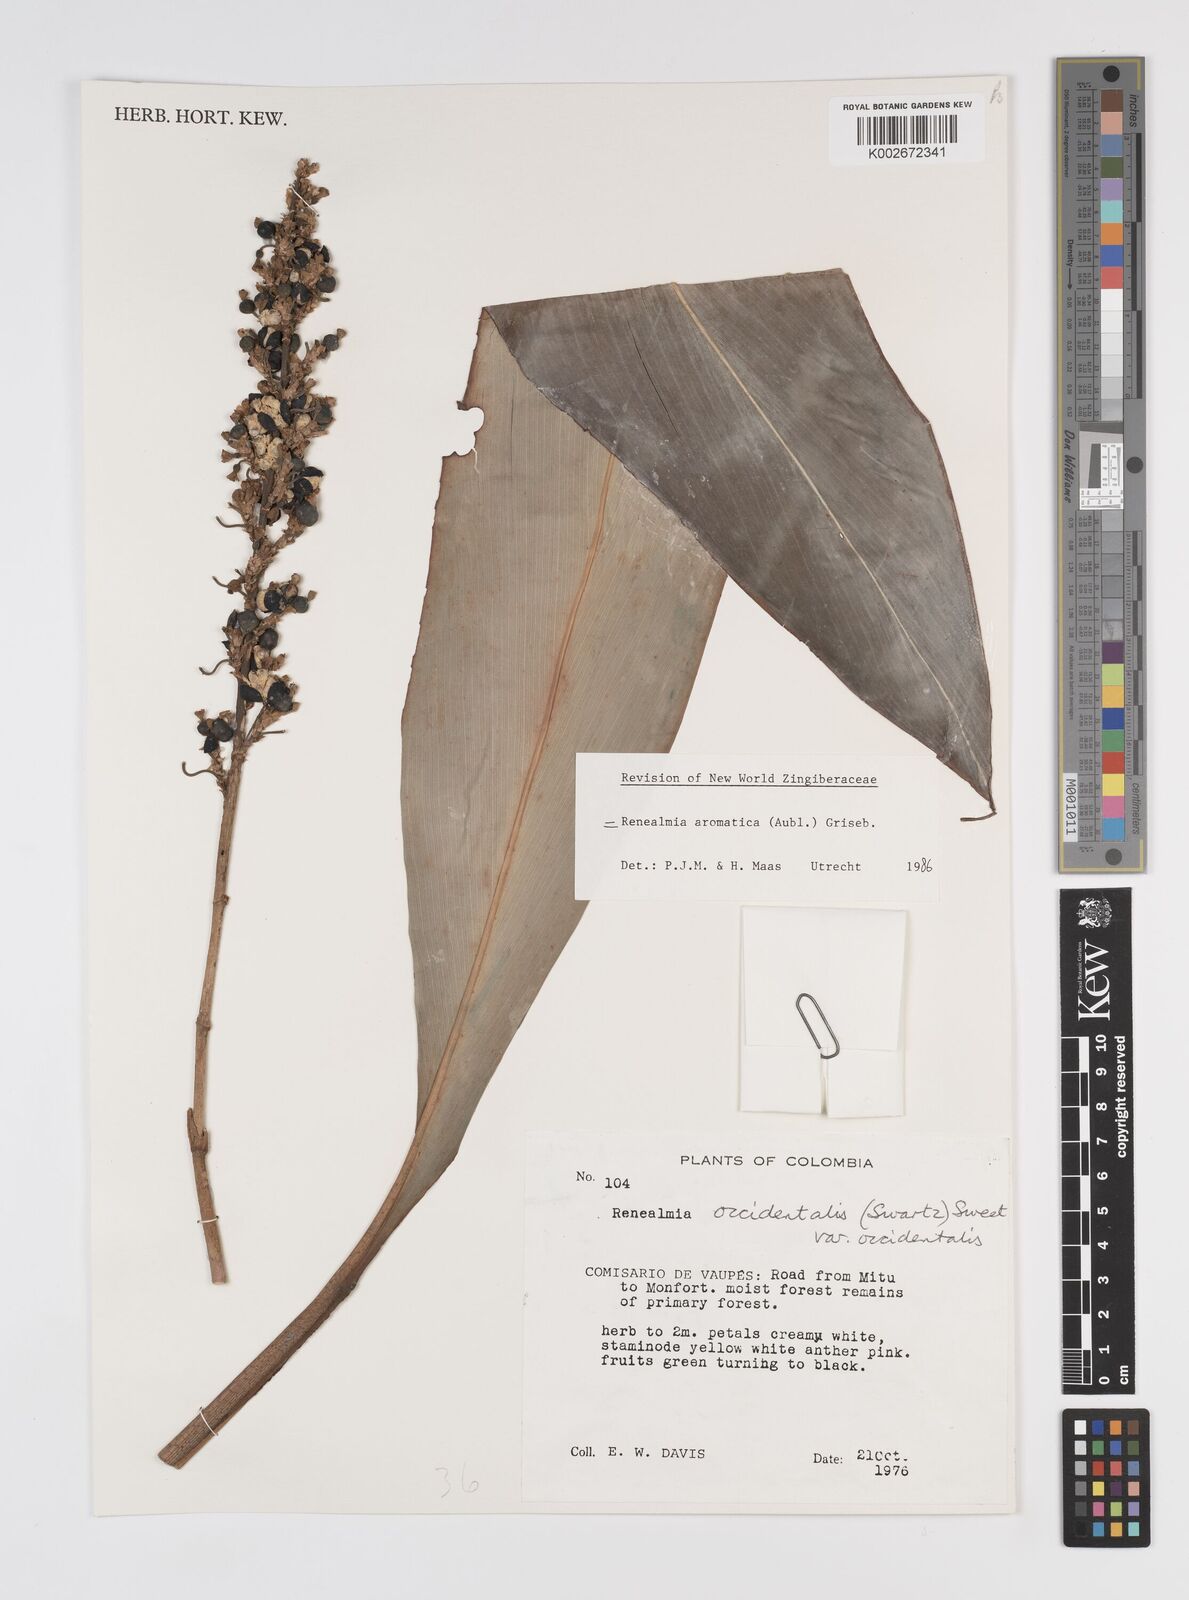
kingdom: Plantae
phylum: Tracheophyta
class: Liliopsida
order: Zingiberales
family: Zingiberaceae
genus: Renealmia
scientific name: Renealmia aromatica
